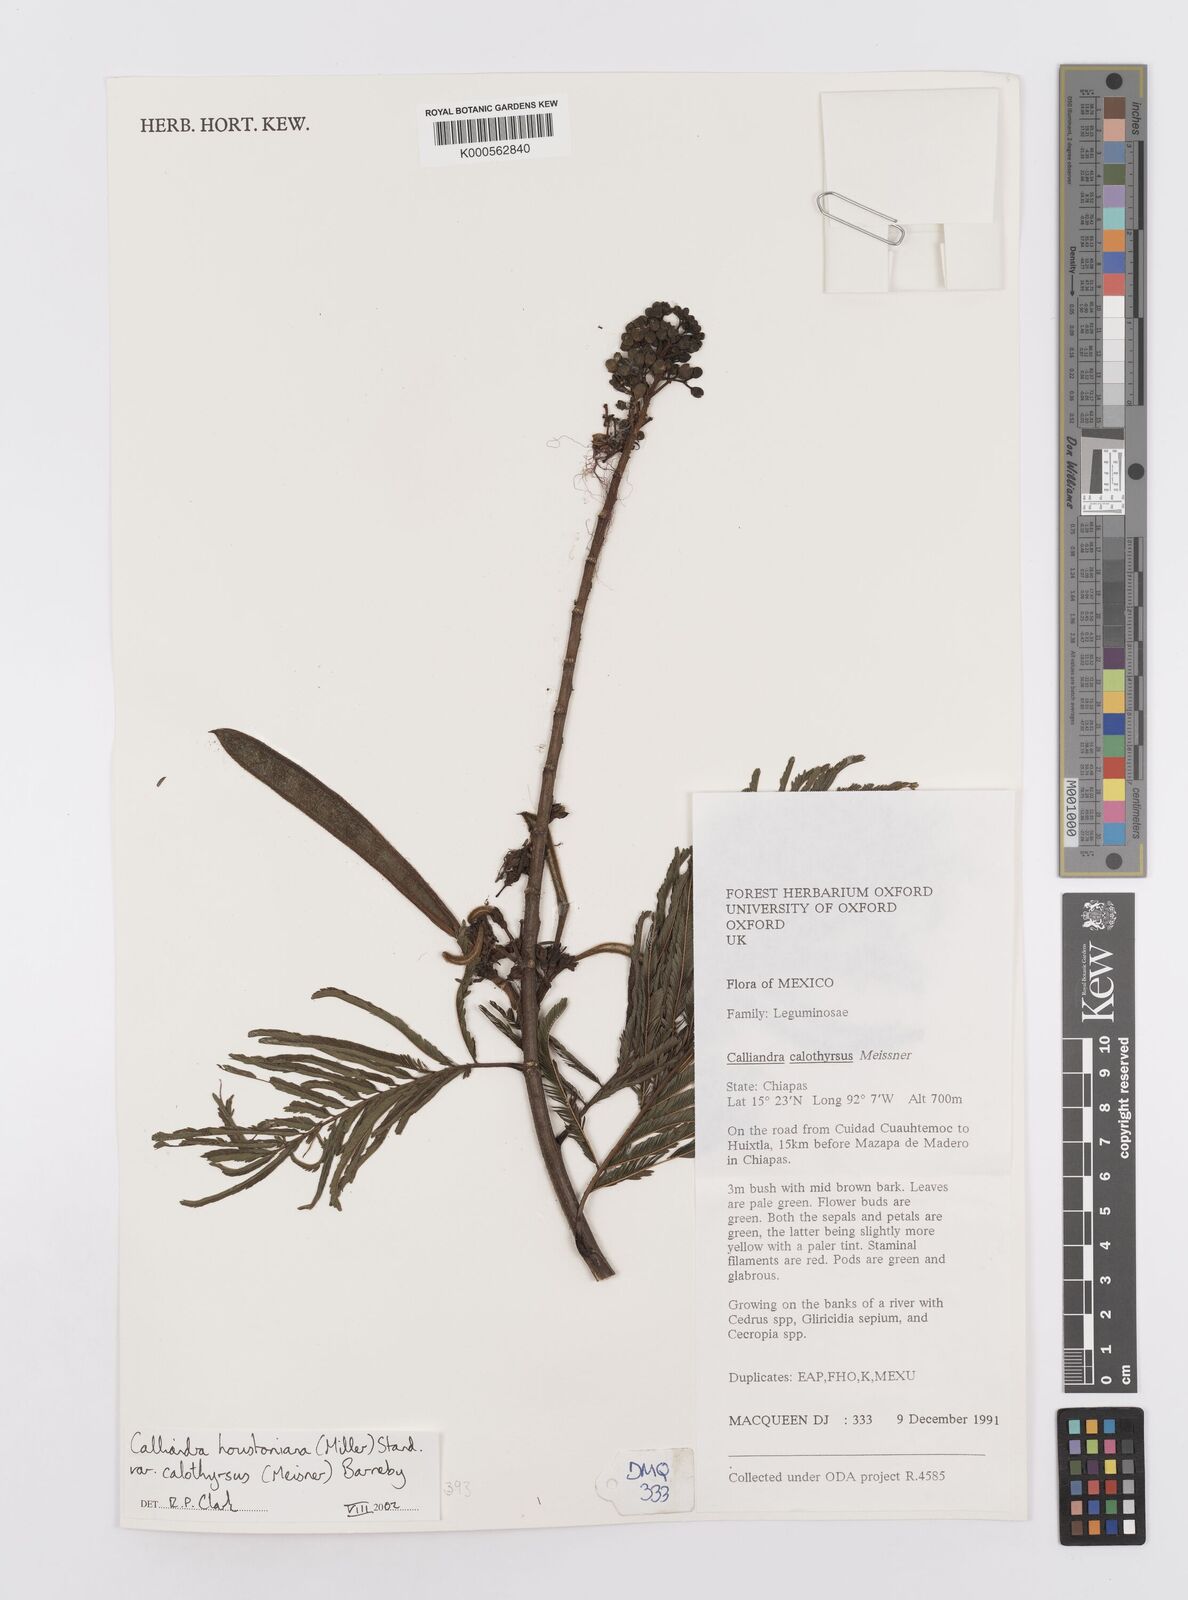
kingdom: Plantae
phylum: Tracheophyta
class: Magnoliopsida
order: Fabales
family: Fabaceae
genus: Calliandra
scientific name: Calliandra houstoniana
